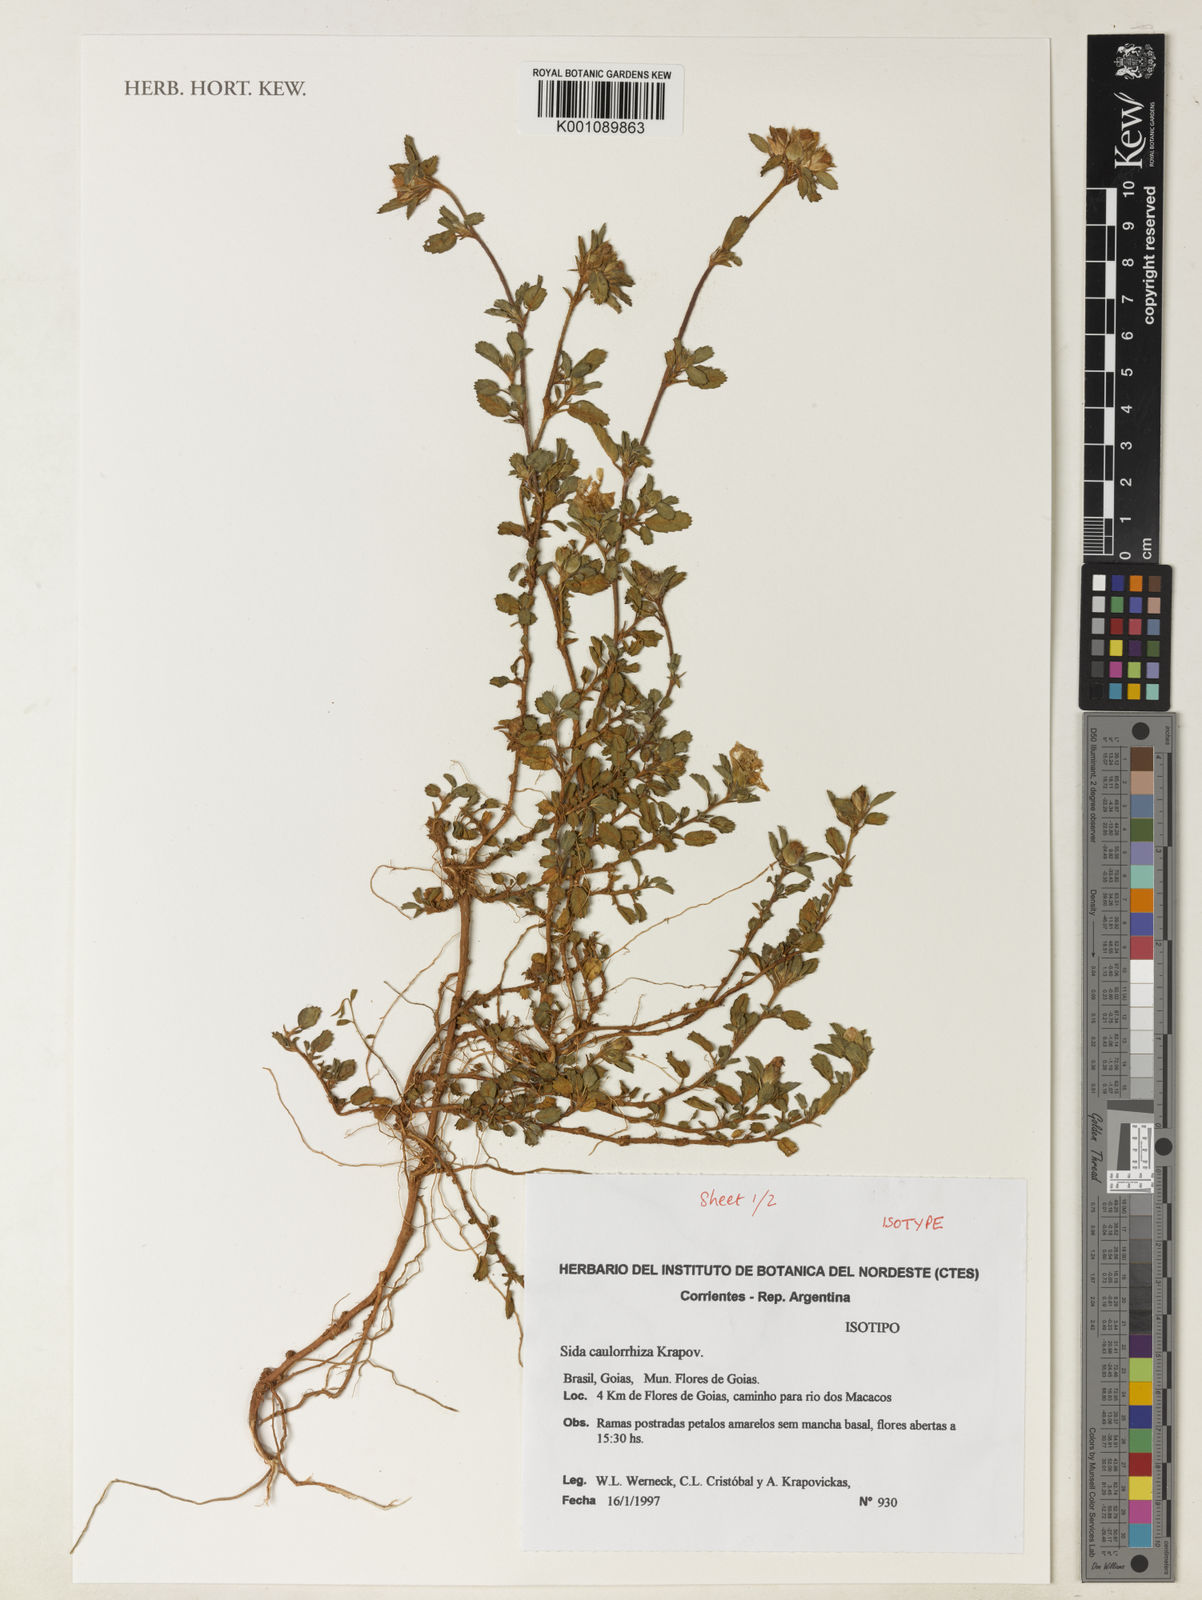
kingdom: Plantae
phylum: Tracheophyta
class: Magnoliopsida
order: Malvales
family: Malvaceae
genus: Sida
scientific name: Sida caulorrhiza
